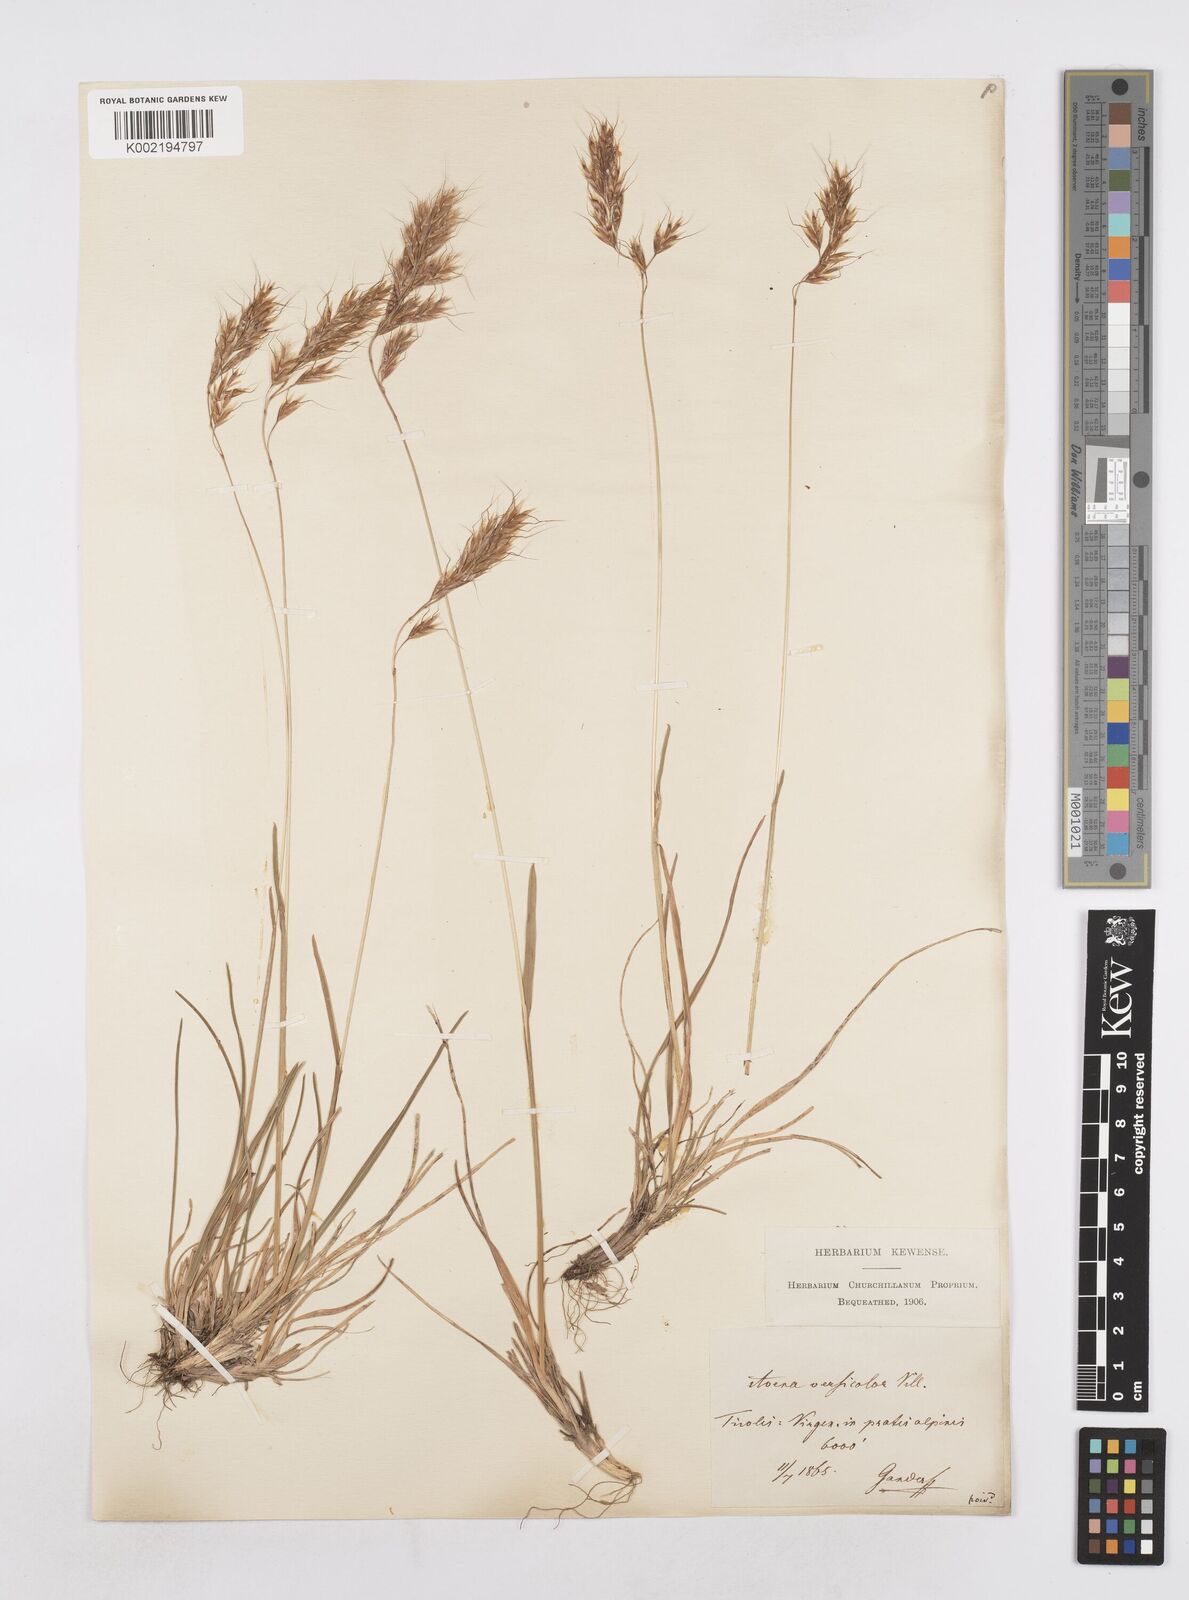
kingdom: Plantae
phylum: Tracheophyta
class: Liliopsida
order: Poales
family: Poaceae
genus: Helictochloa
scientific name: Helictochloa versicolor
